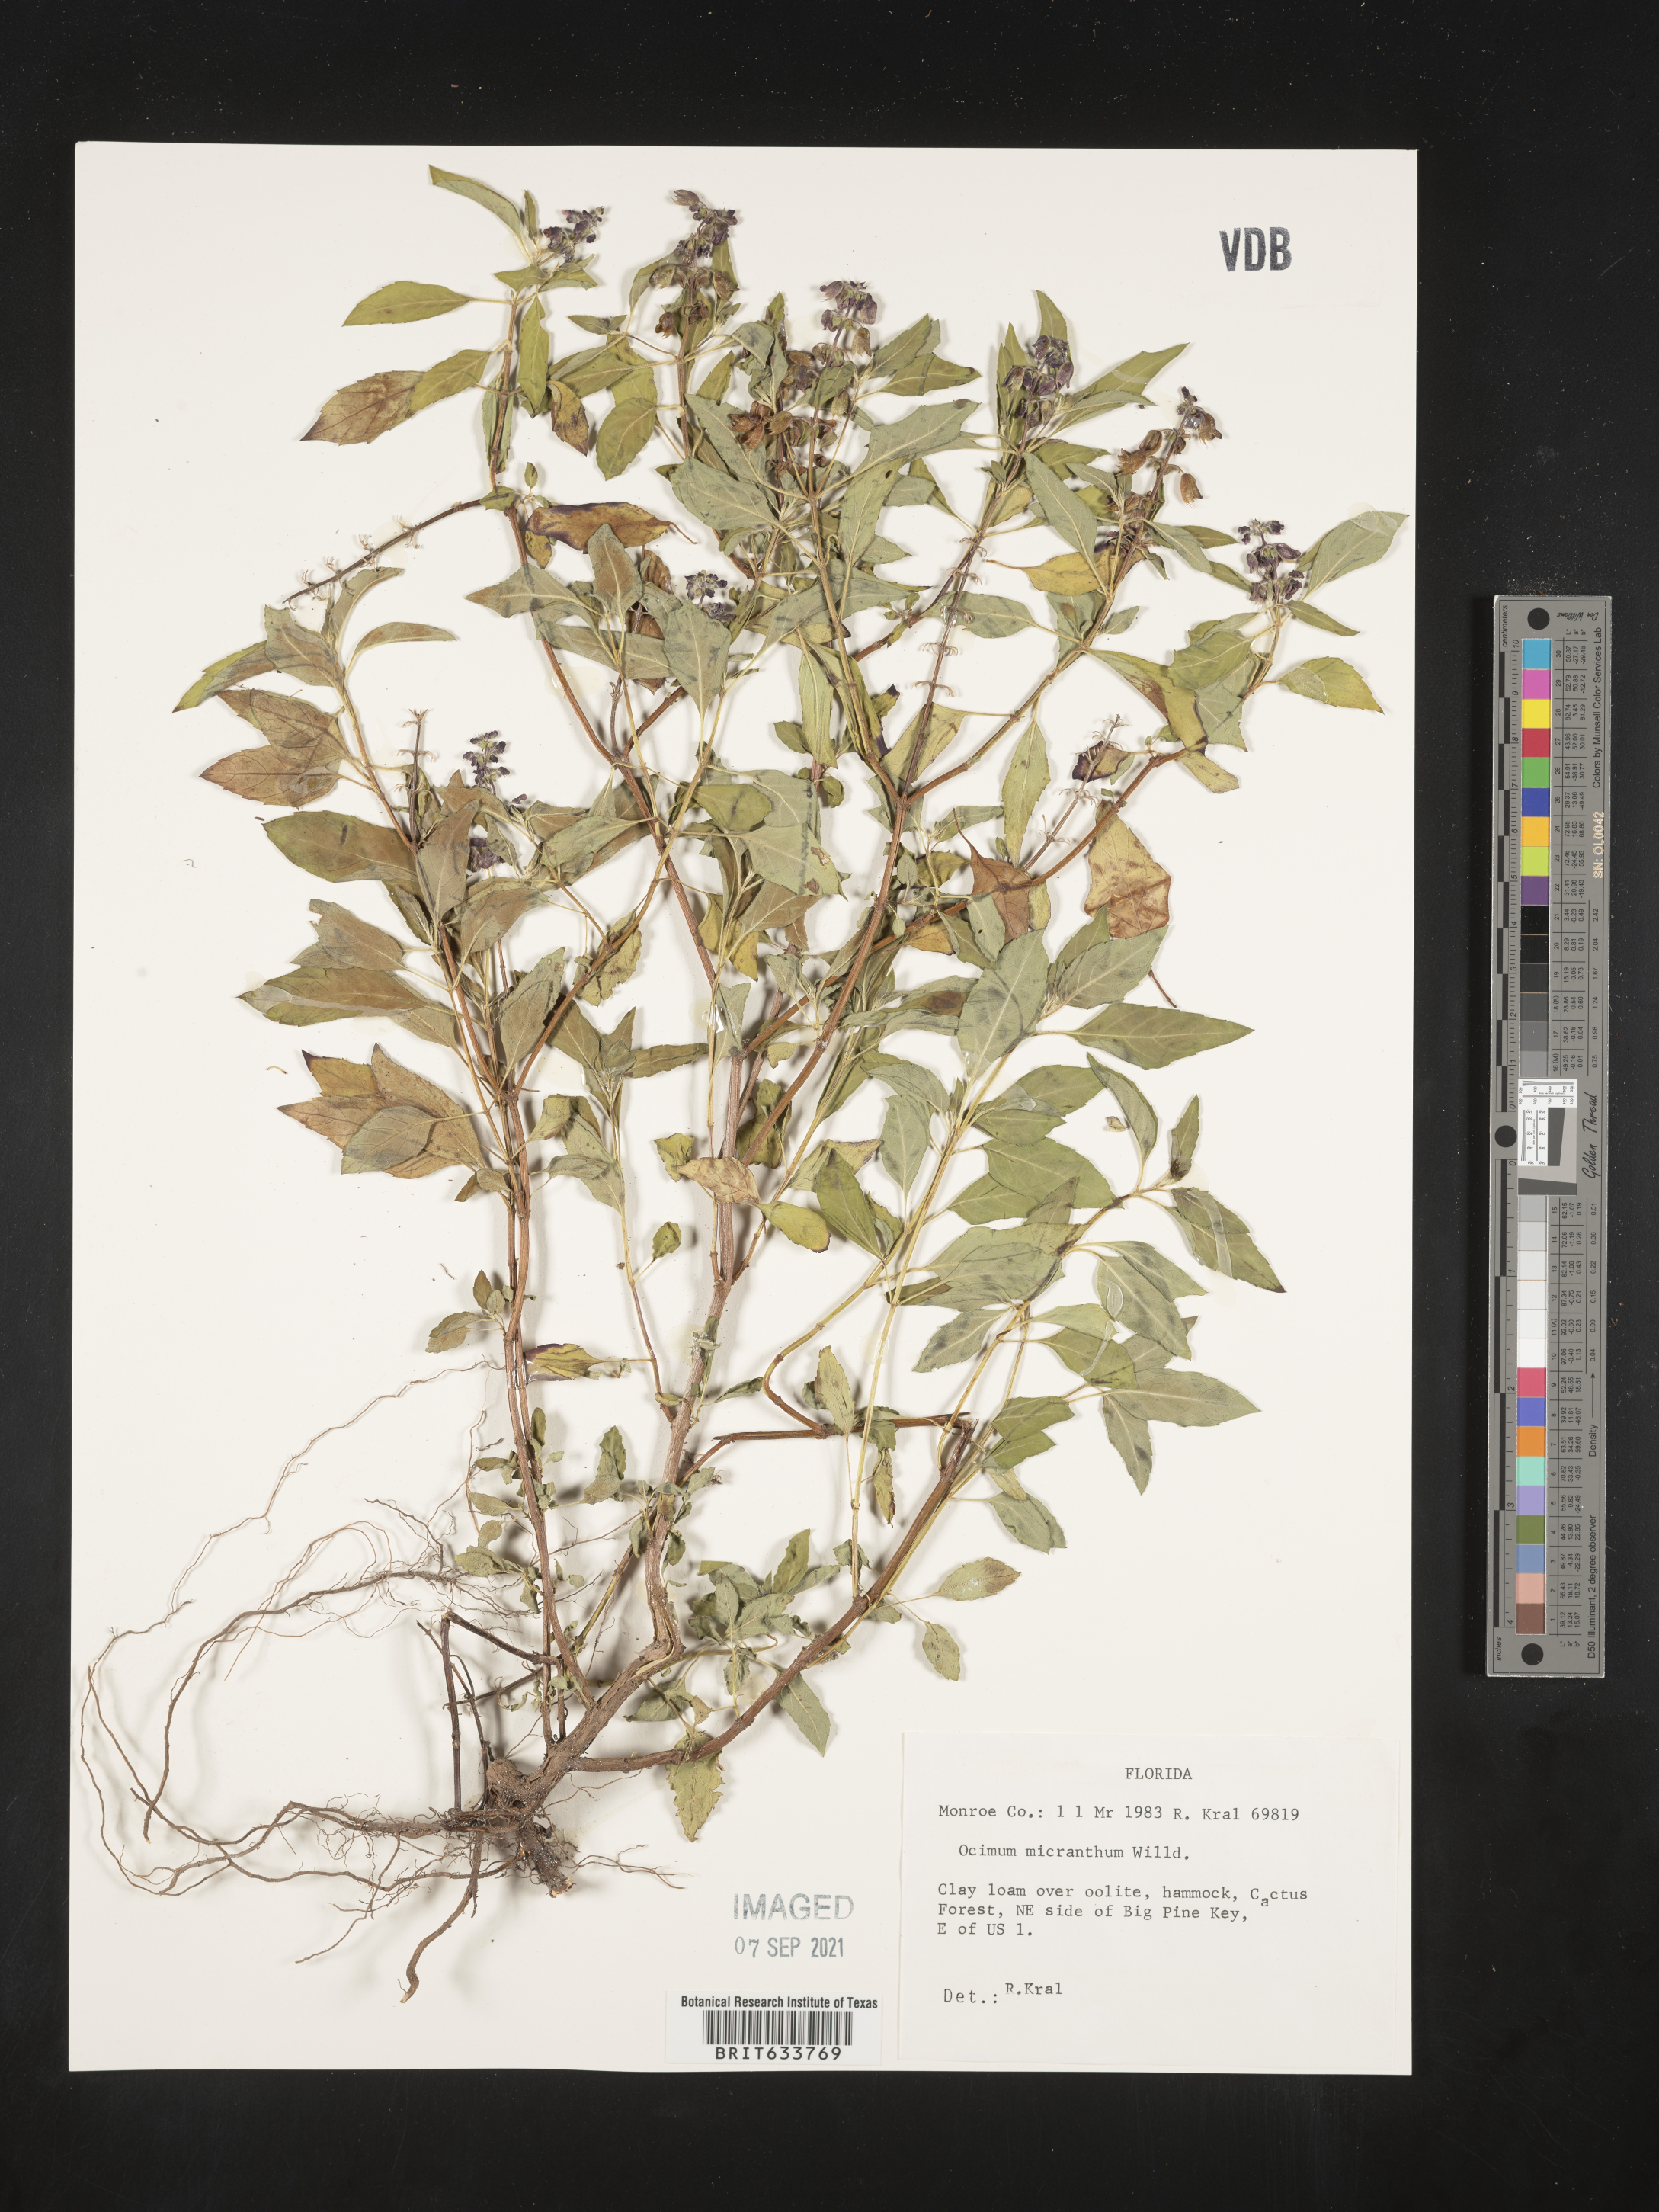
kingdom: Plantae
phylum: Tracheophyta
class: Magnoliopsida
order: Lamiales
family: Lamiaceae
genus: Ocimum
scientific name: Ocimum
